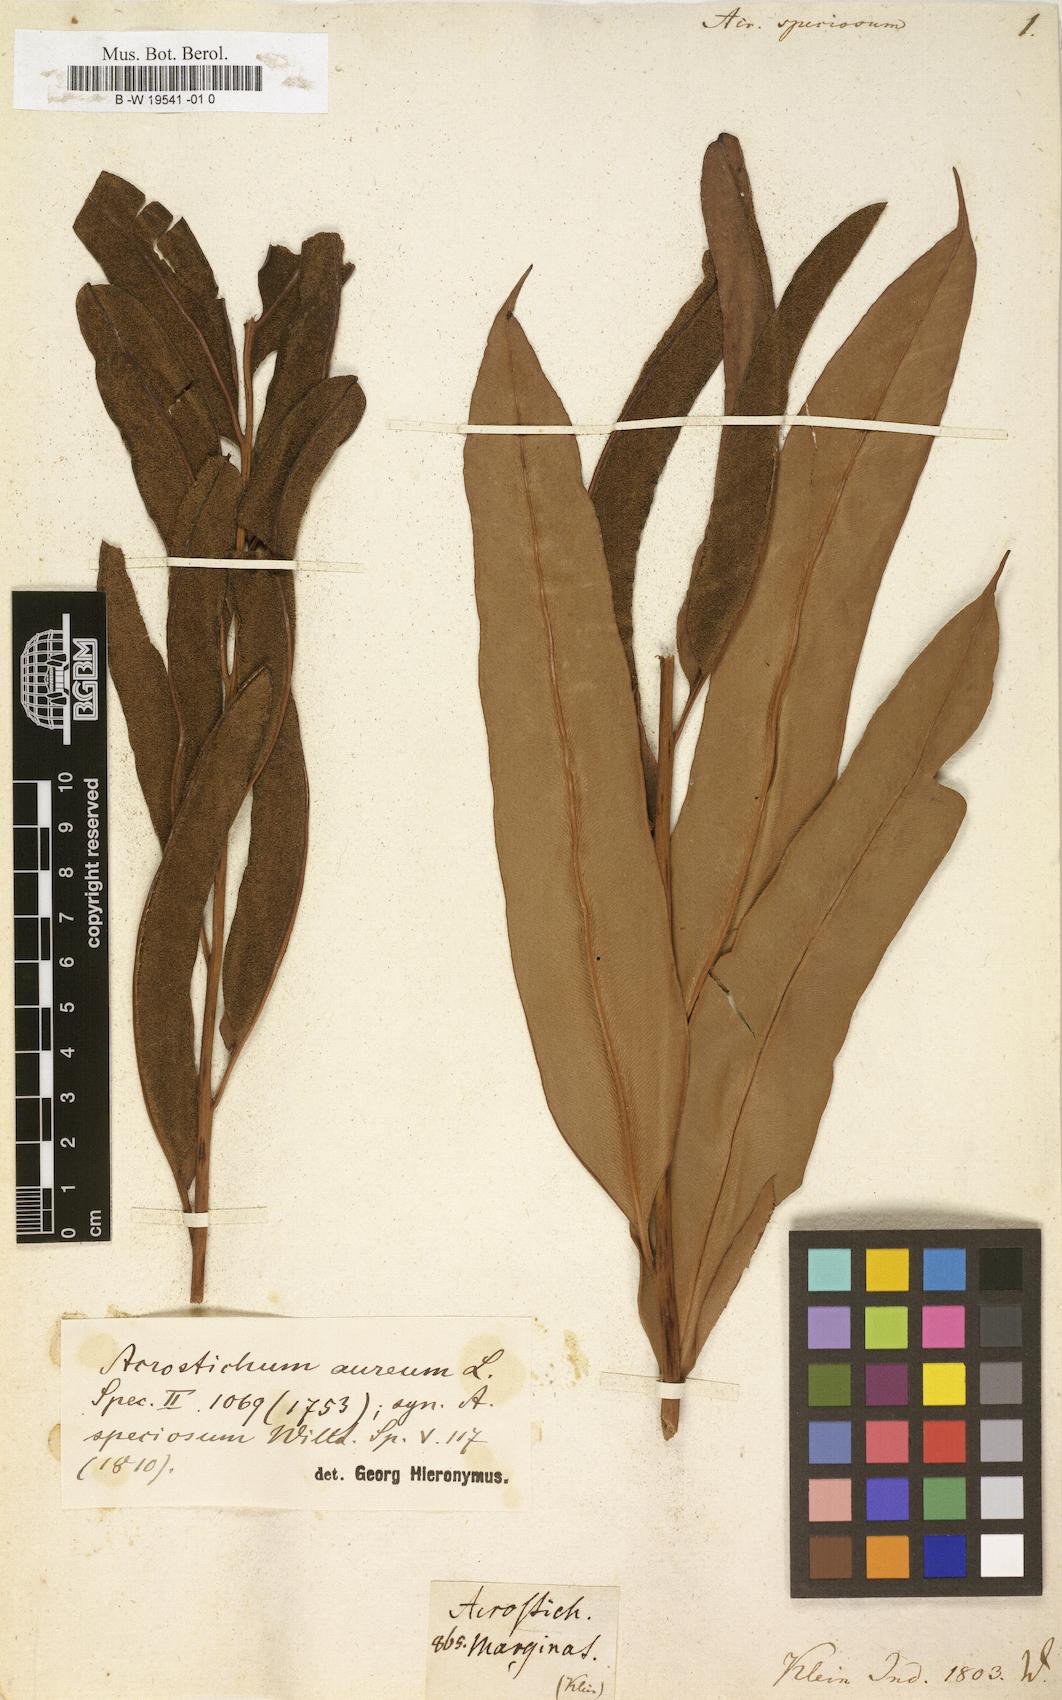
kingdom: Plantae
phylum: Tracheophyta
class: Polypodiopsida
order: Polypodiales
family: Pteridaceae
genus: Acrostichum
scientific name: Acrostichum speciosum
